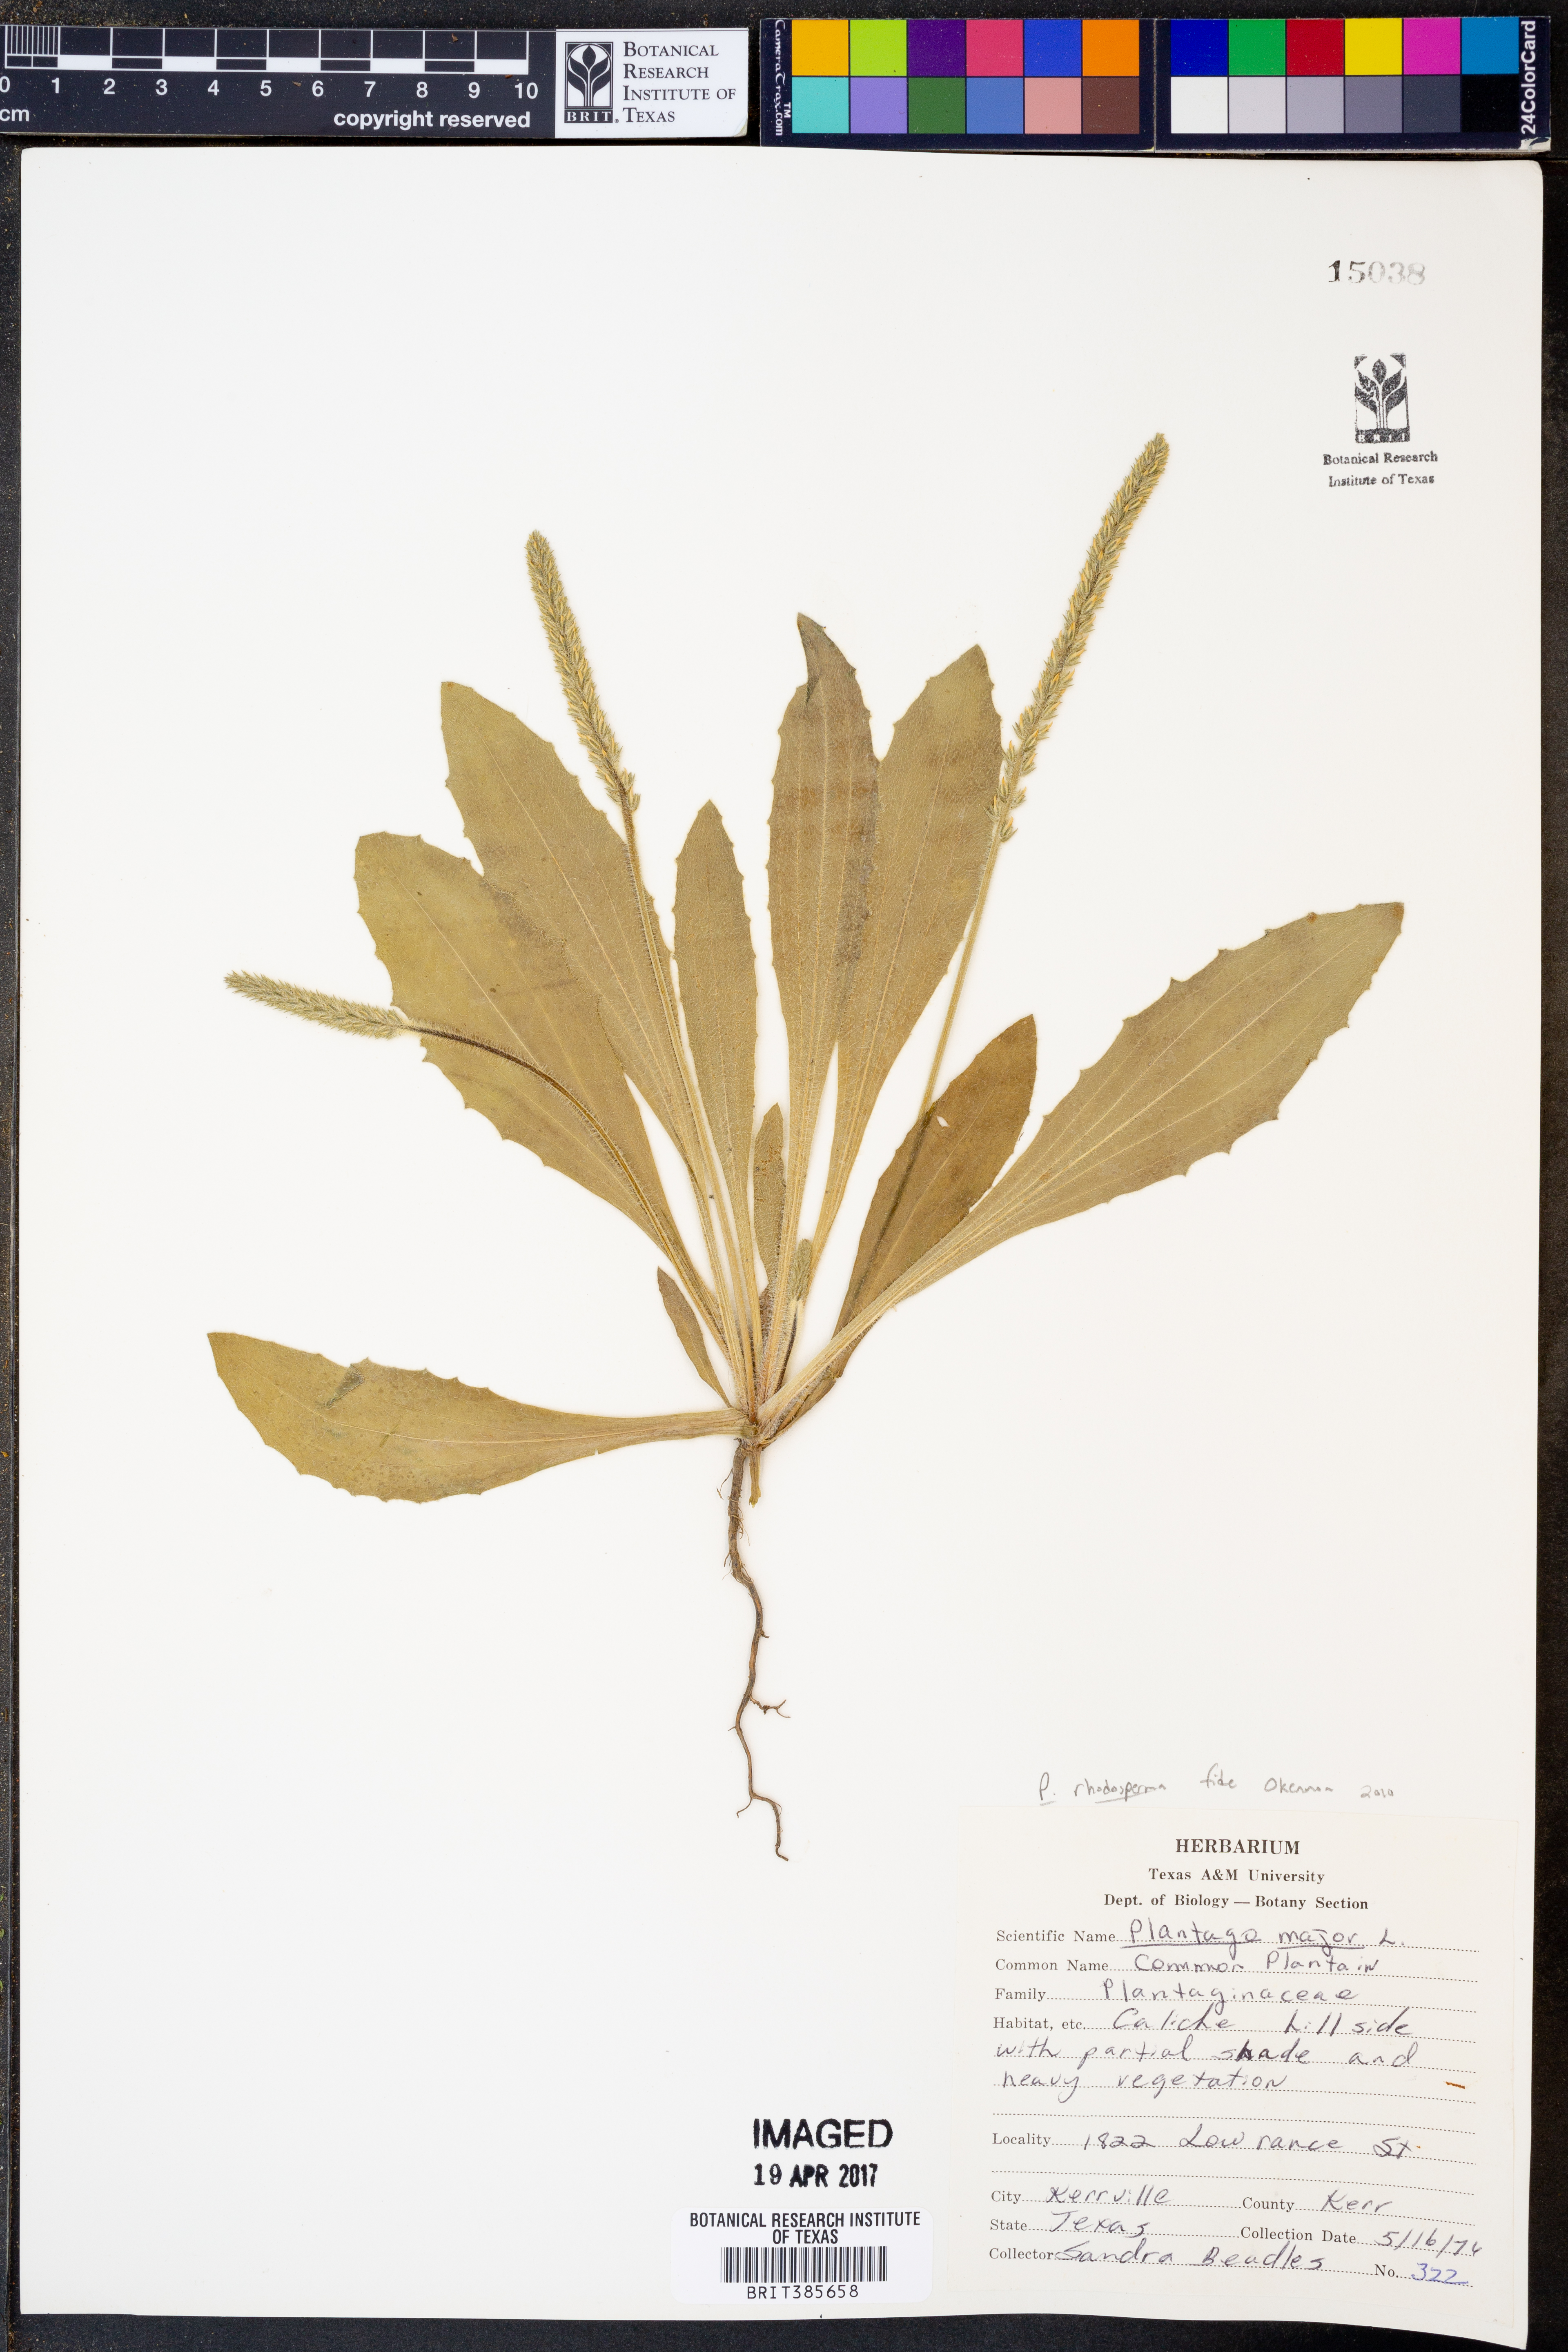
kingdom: Plantae
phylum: Tracheophyta
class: Magnoliopsida
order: Lamiales
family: Plantaginaceae
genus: Plantago
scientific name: Plantago rhodosperma
